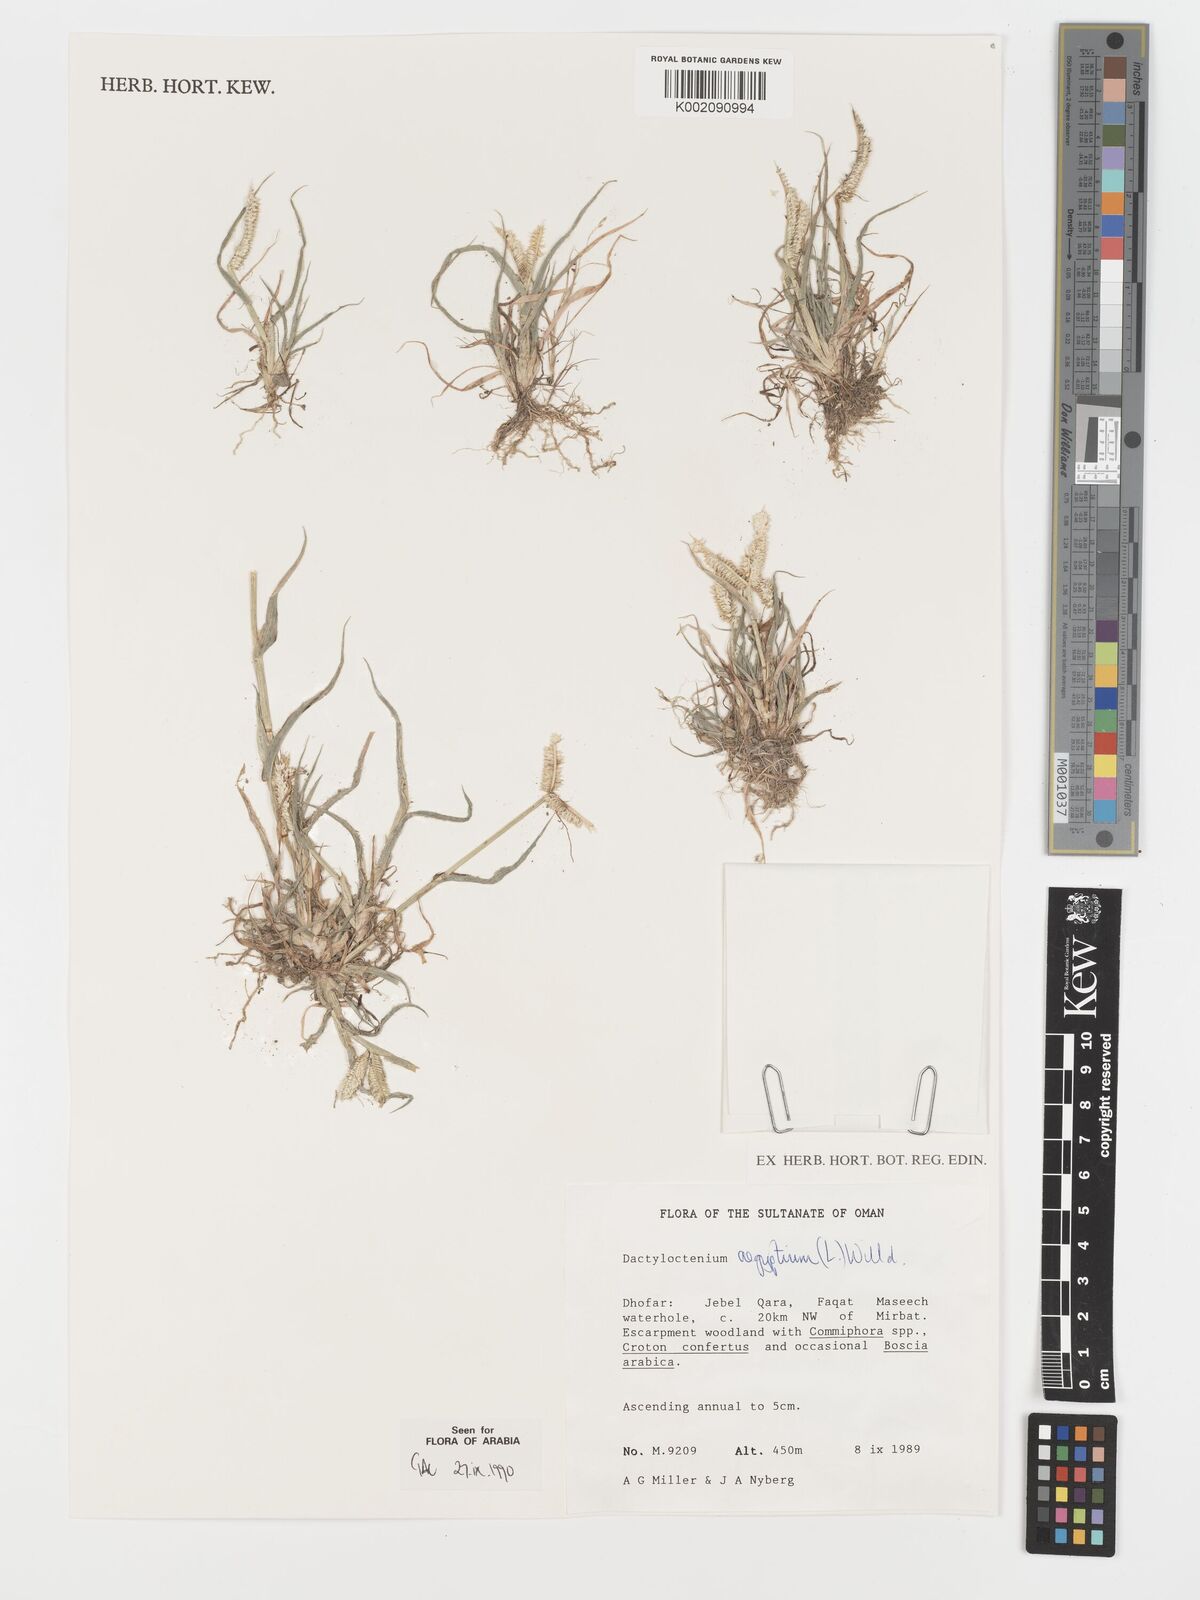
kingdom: Plantae
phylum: Tracheophyta
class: Liliopsida
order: Poales
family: Poaceae
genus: Dactyloctenium
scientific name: Dactyloctenium aegyptium
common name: Egyptian grass
